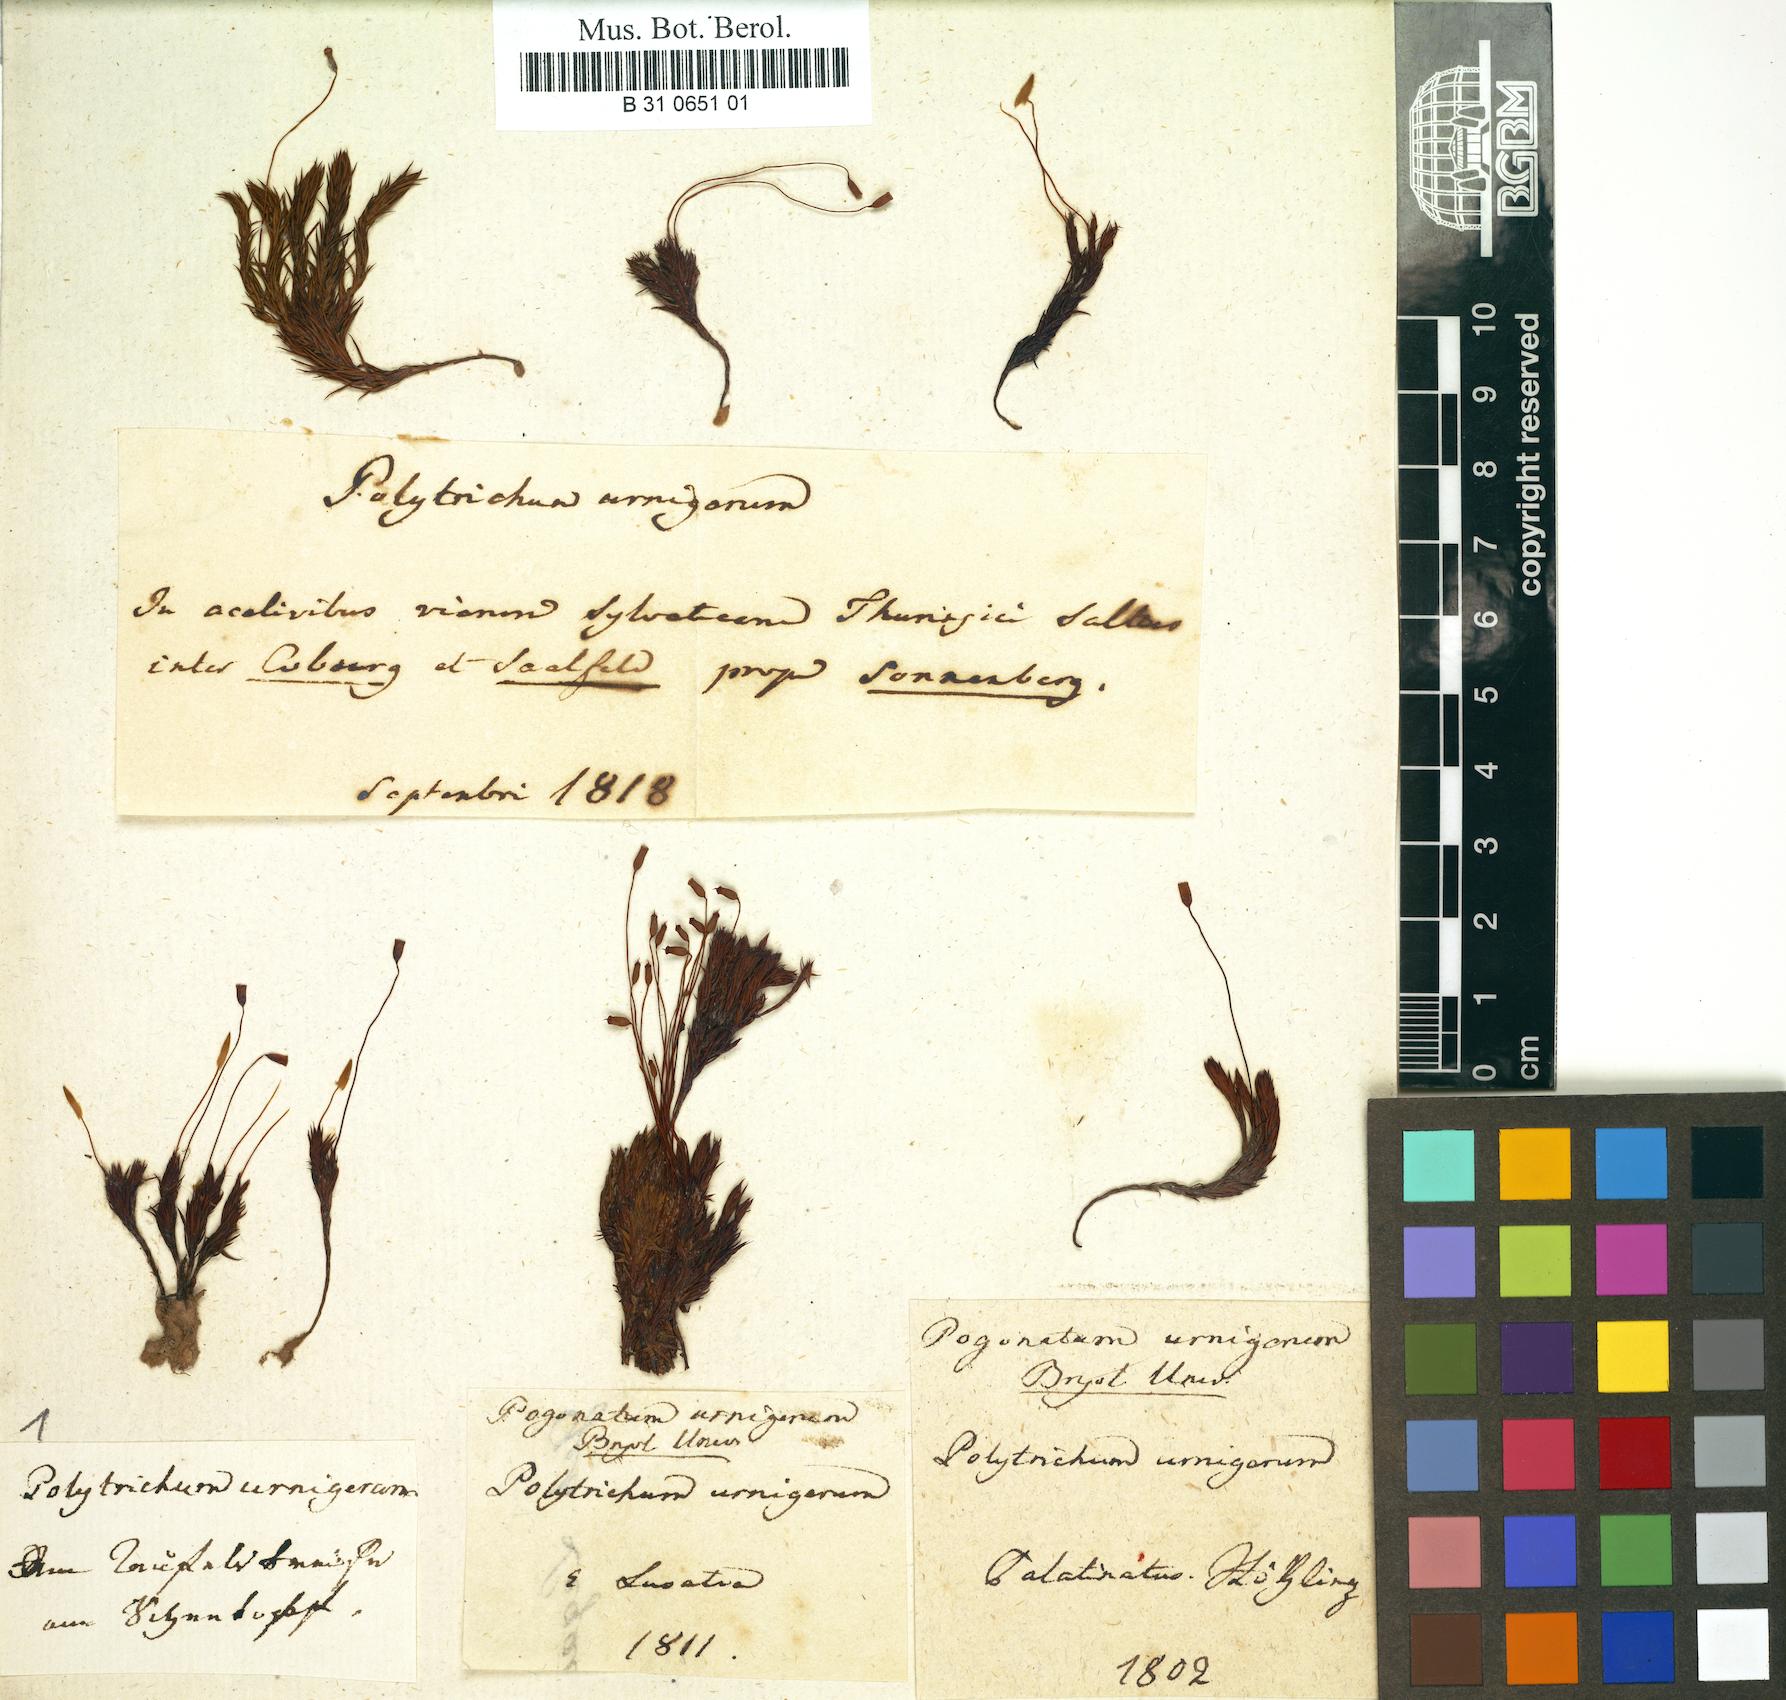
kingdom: Plantae
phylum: Bryophyta
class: Polytrichopsida
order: Polytrichales
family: Polytrichaceae
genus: Pogonatum
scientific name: Pogonatum
